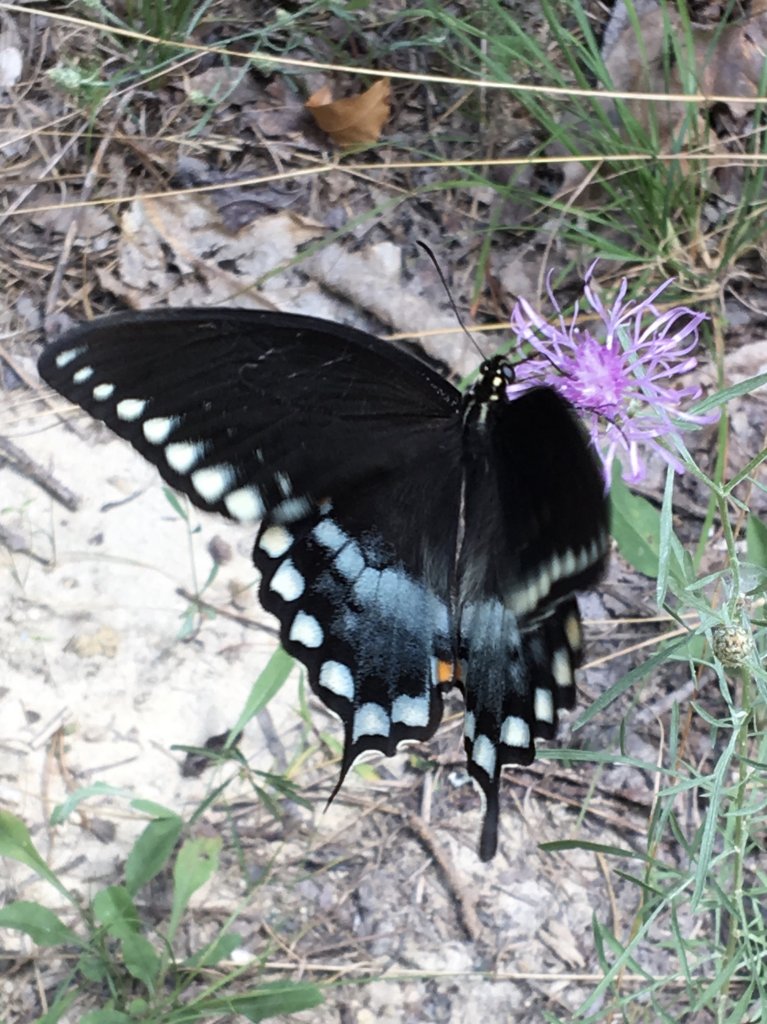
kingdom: Animalia
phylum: Arthropoda
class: Insecta
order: Lepidoptera
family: Papilionidae
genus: Pterourus
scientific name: Pterourus troilus
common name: Spicebush Swallowtail
